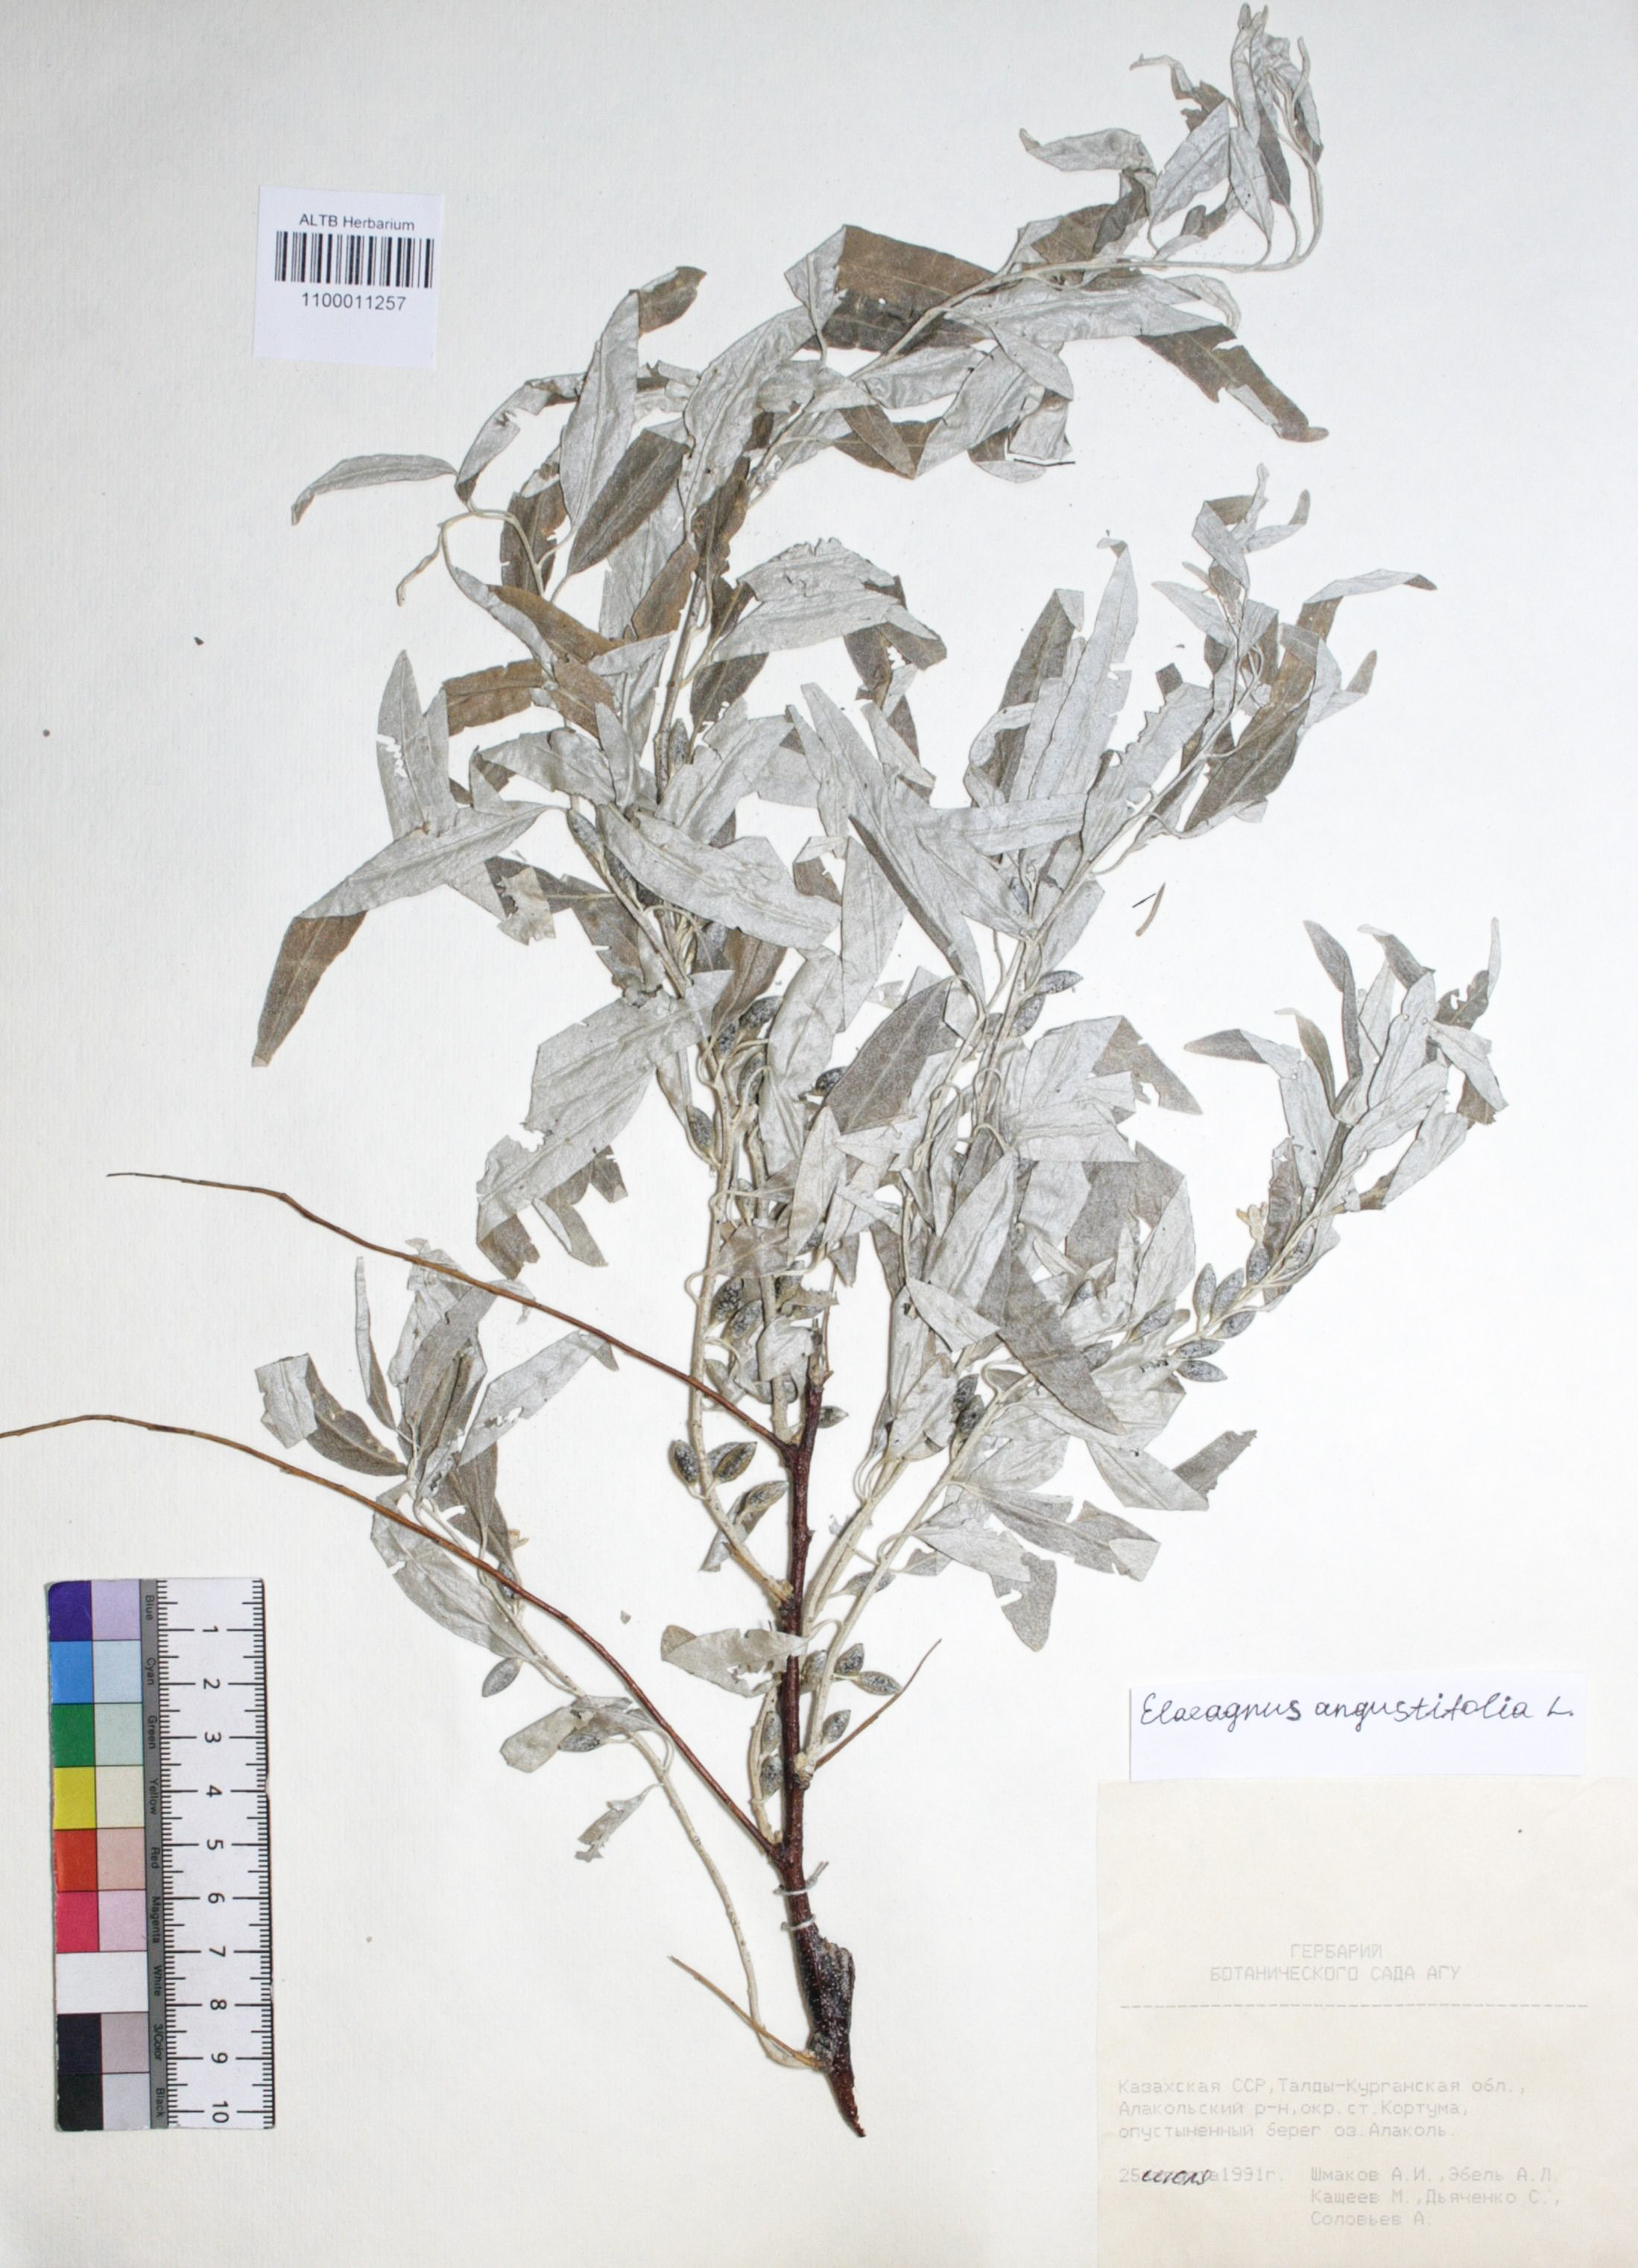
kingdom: Plantae
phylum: Tracheophyta
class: Magnoliopsida
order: Rosales
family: Elaeagnaceae
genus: Elaeagnus
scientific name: Elaeagnus angustifolia
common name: Russian olive
